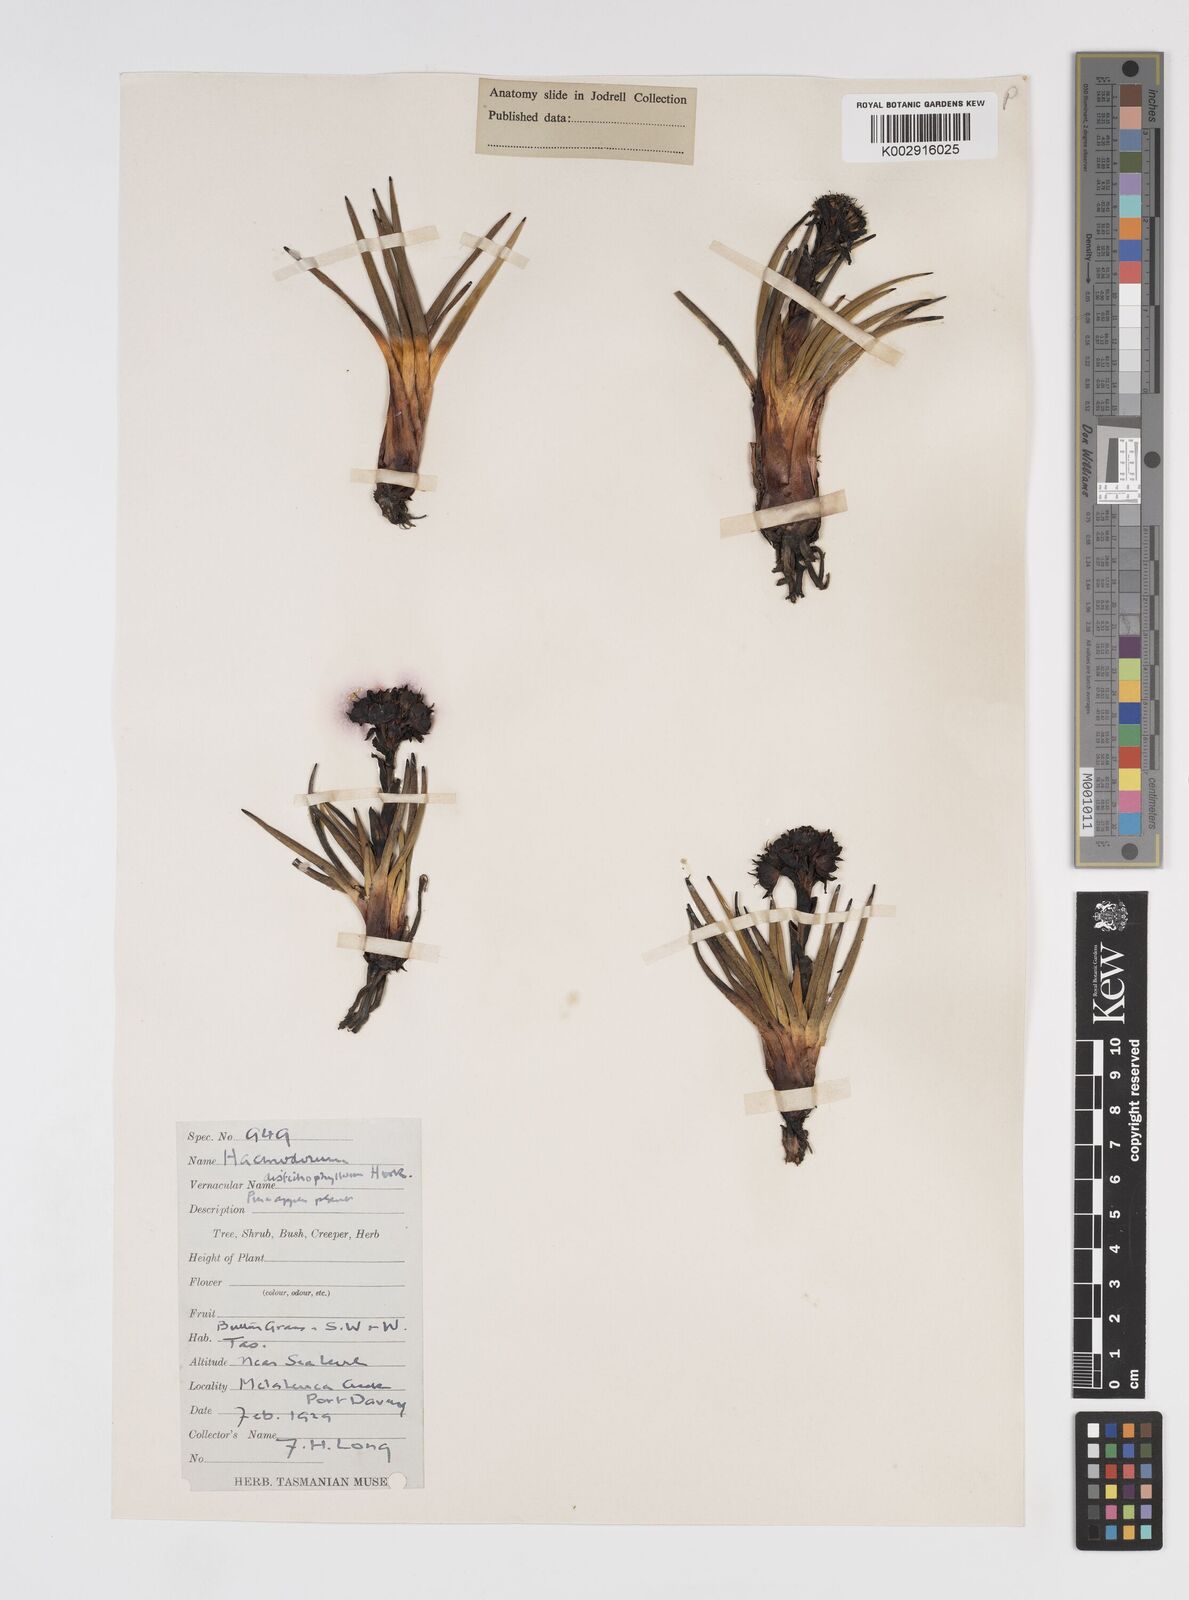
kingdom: Plantae
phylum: Tracheophyta
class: Liliopsida
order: Commelinales
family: Haemodoraceae
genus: Haemodorum
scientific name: Haemodorum distichophyllum
